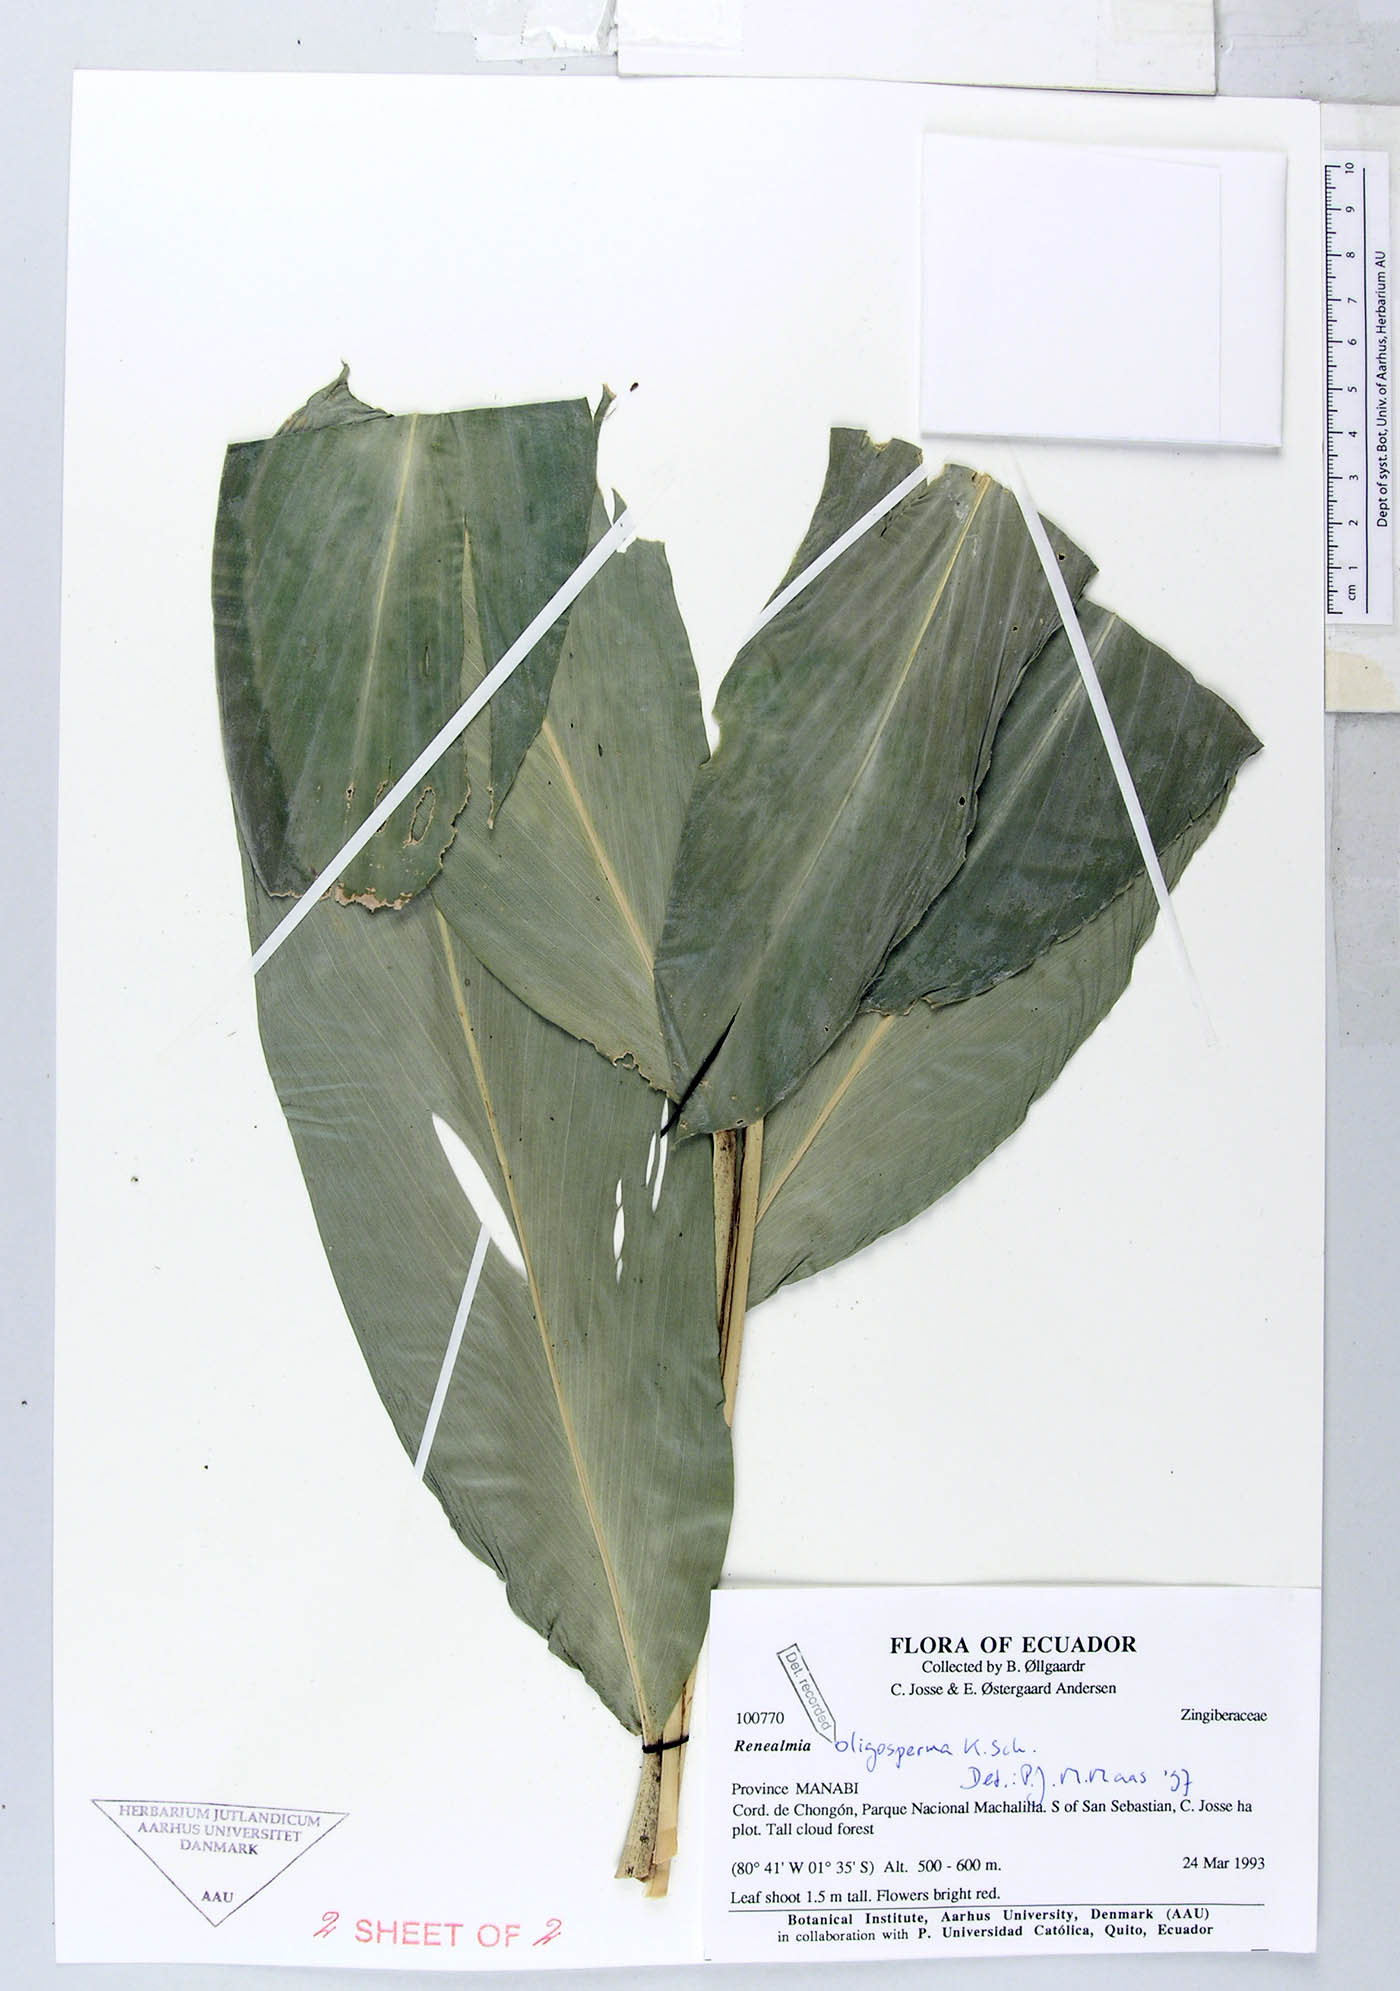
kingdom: Plantae
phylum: Tracheophyta
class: Liliopsida
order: Zingiberales
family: Zingiberaceae
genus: Renealmia
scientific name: Renealmia oligosperma
